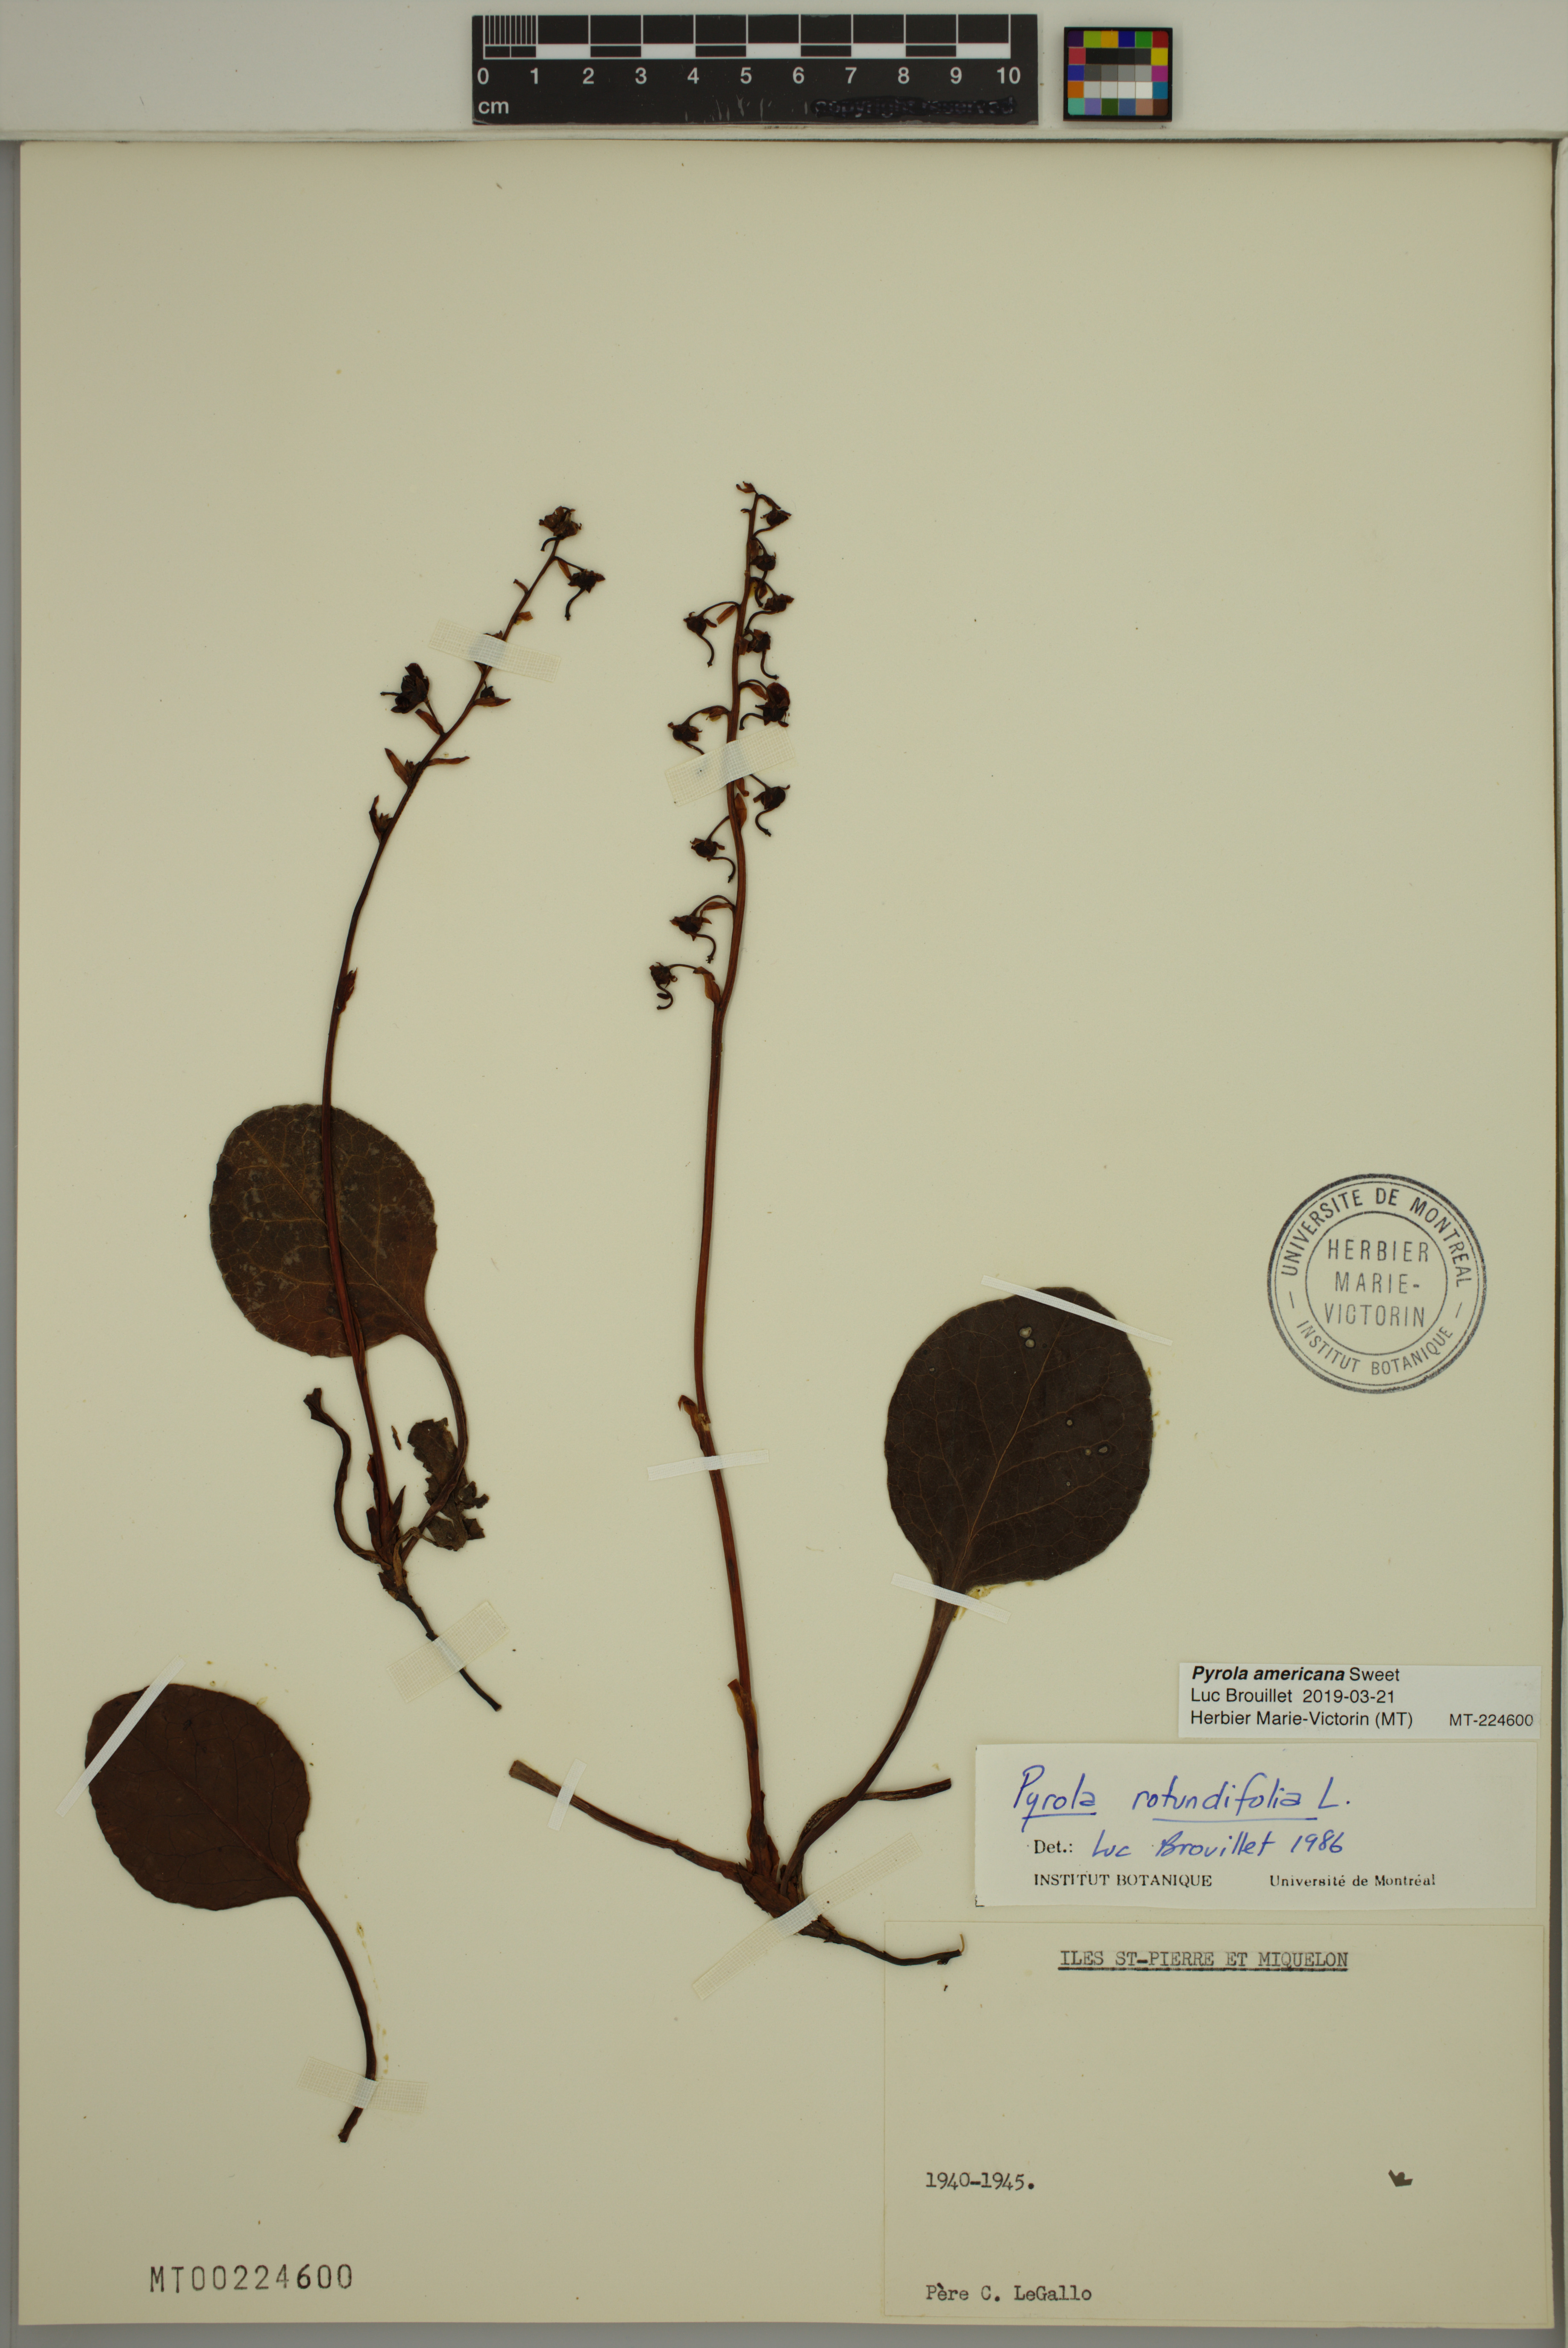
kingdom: Plantae
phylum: Tracheophyta
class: Magnoliopsida
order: Ericales
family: Ericaceae
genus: Pyrola
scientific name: Pyrola americana
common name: American wintergreen
